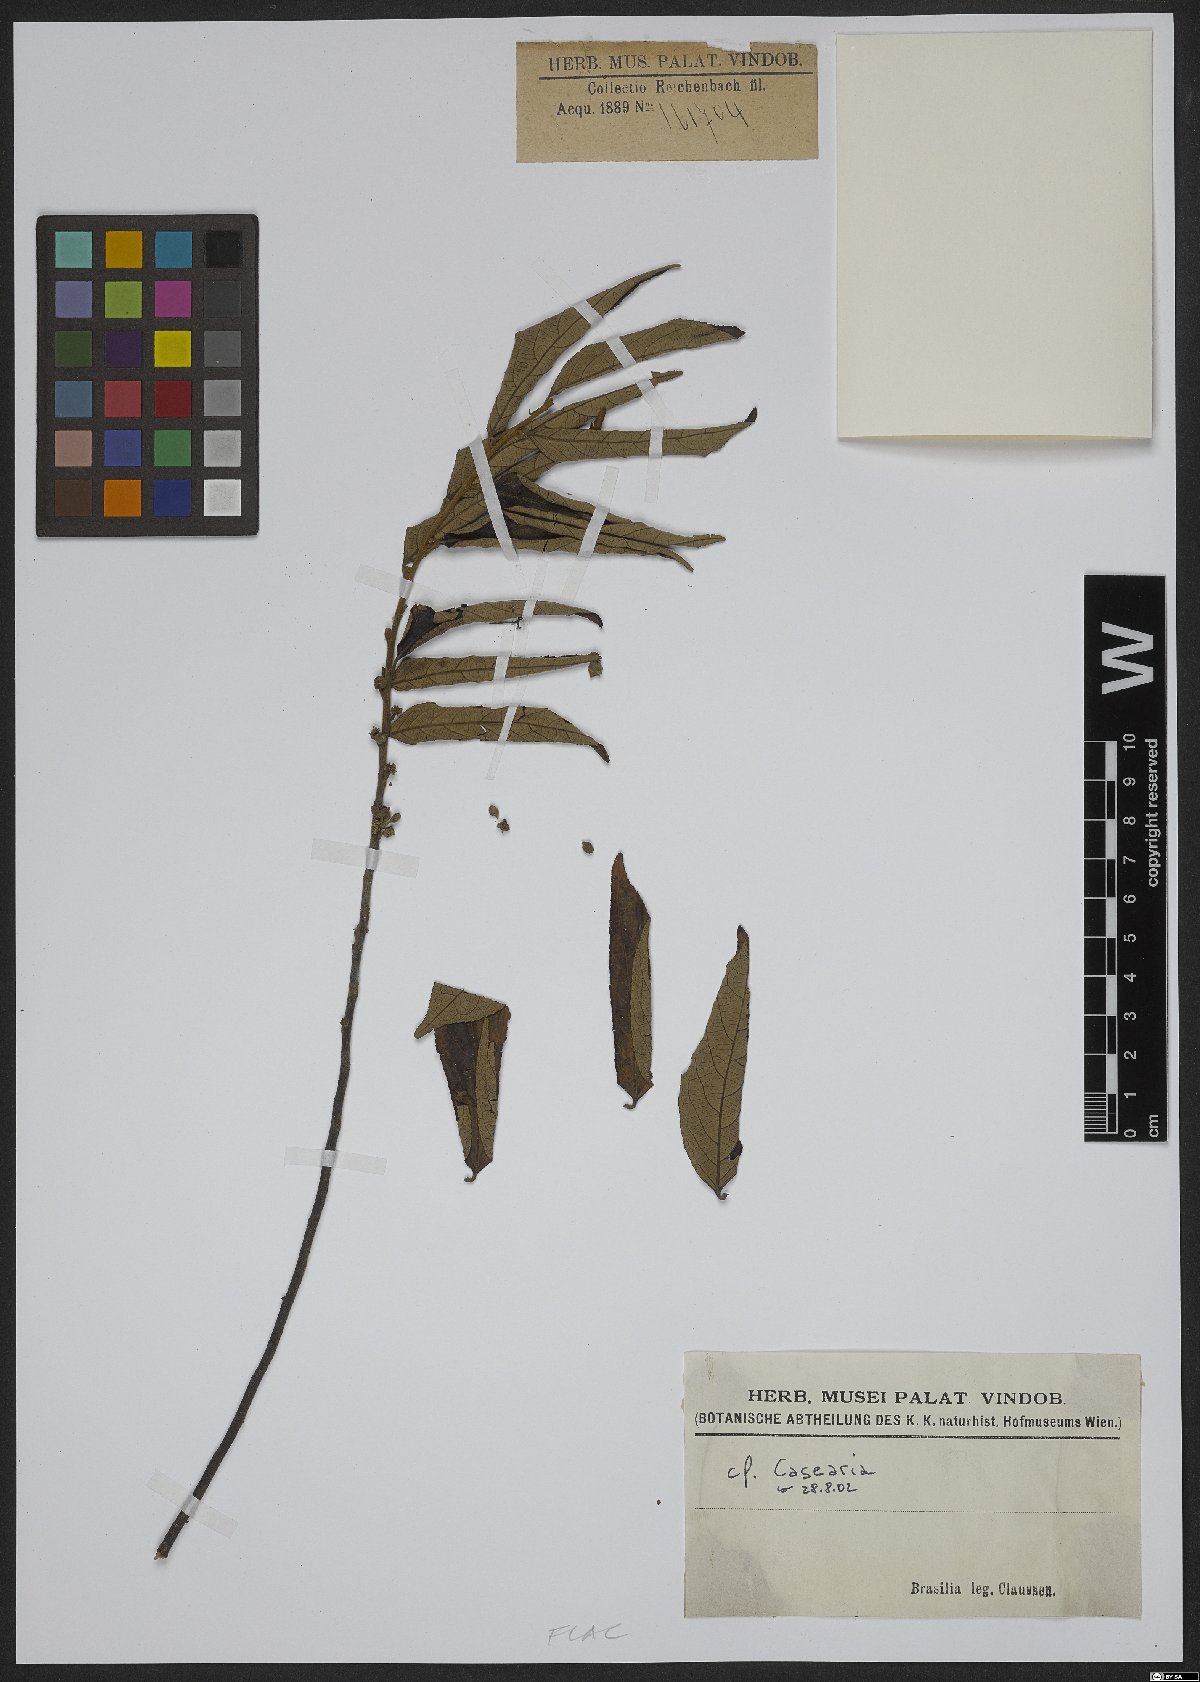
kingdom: Plantae
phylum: Tracheophyta
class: Magnoliopsida
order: Malpighiales
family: Salicaceae
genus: Casearia
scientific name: Casearia
